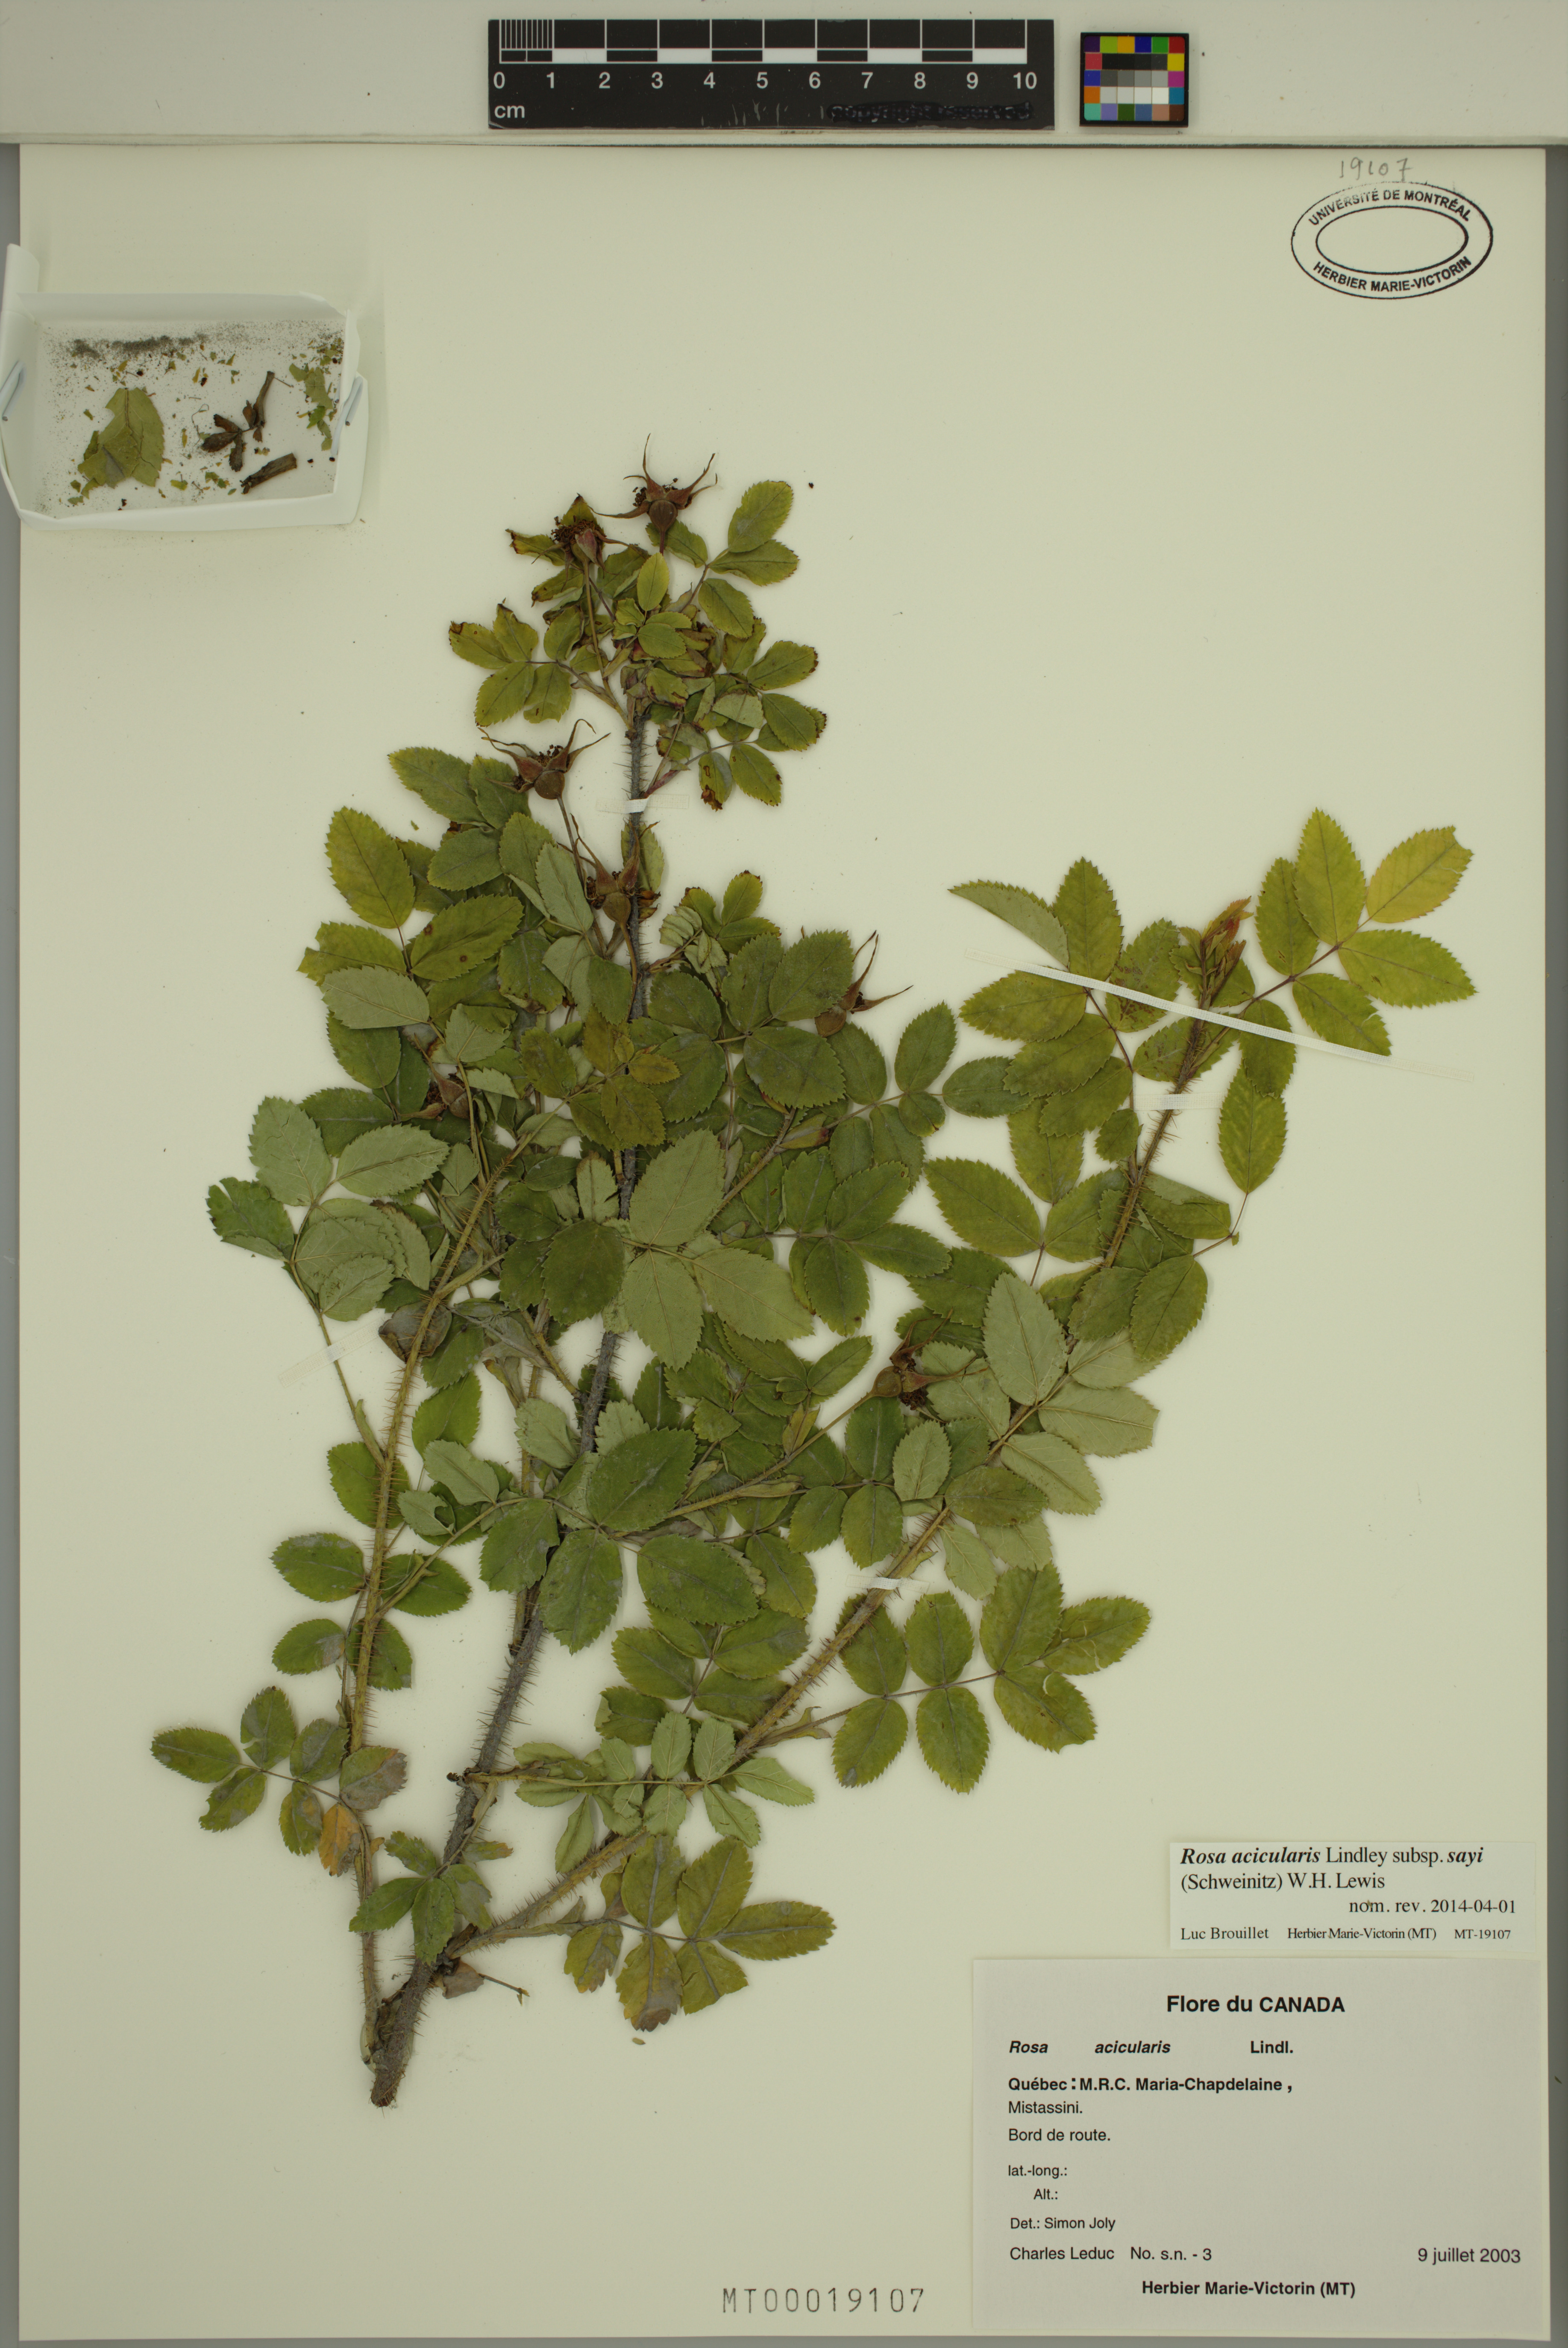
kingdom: Plantae
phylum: Tracheophyta
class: Magnoliopsida
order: Rosales
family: Rosaceae
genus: Rosa
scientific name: Rosa acicularis
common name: Prickly rose
